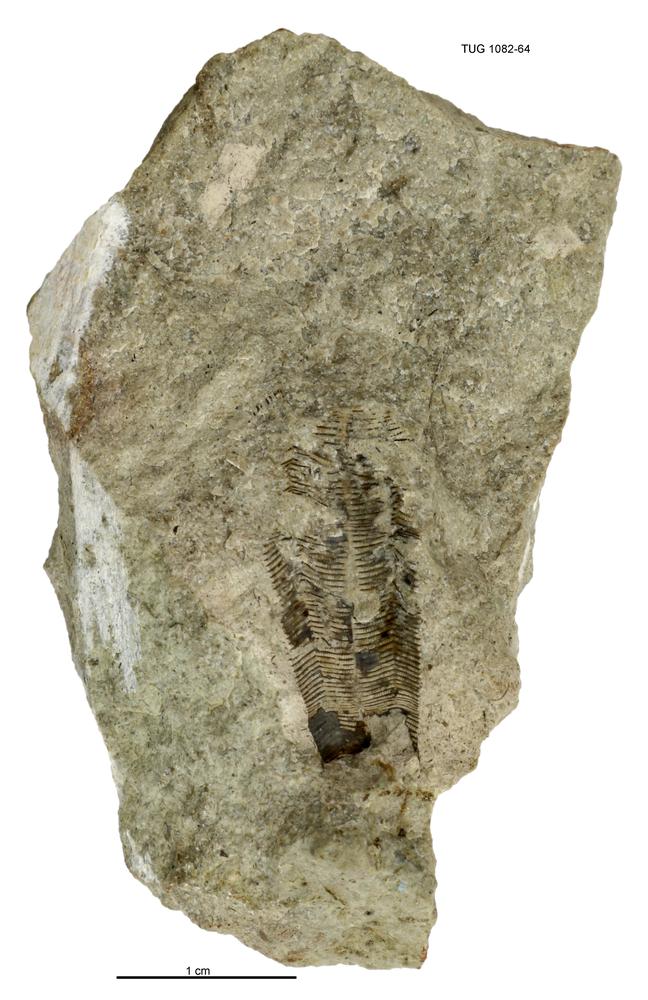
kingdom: Animalia
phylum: Cnidaria
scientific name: Cnidaria
